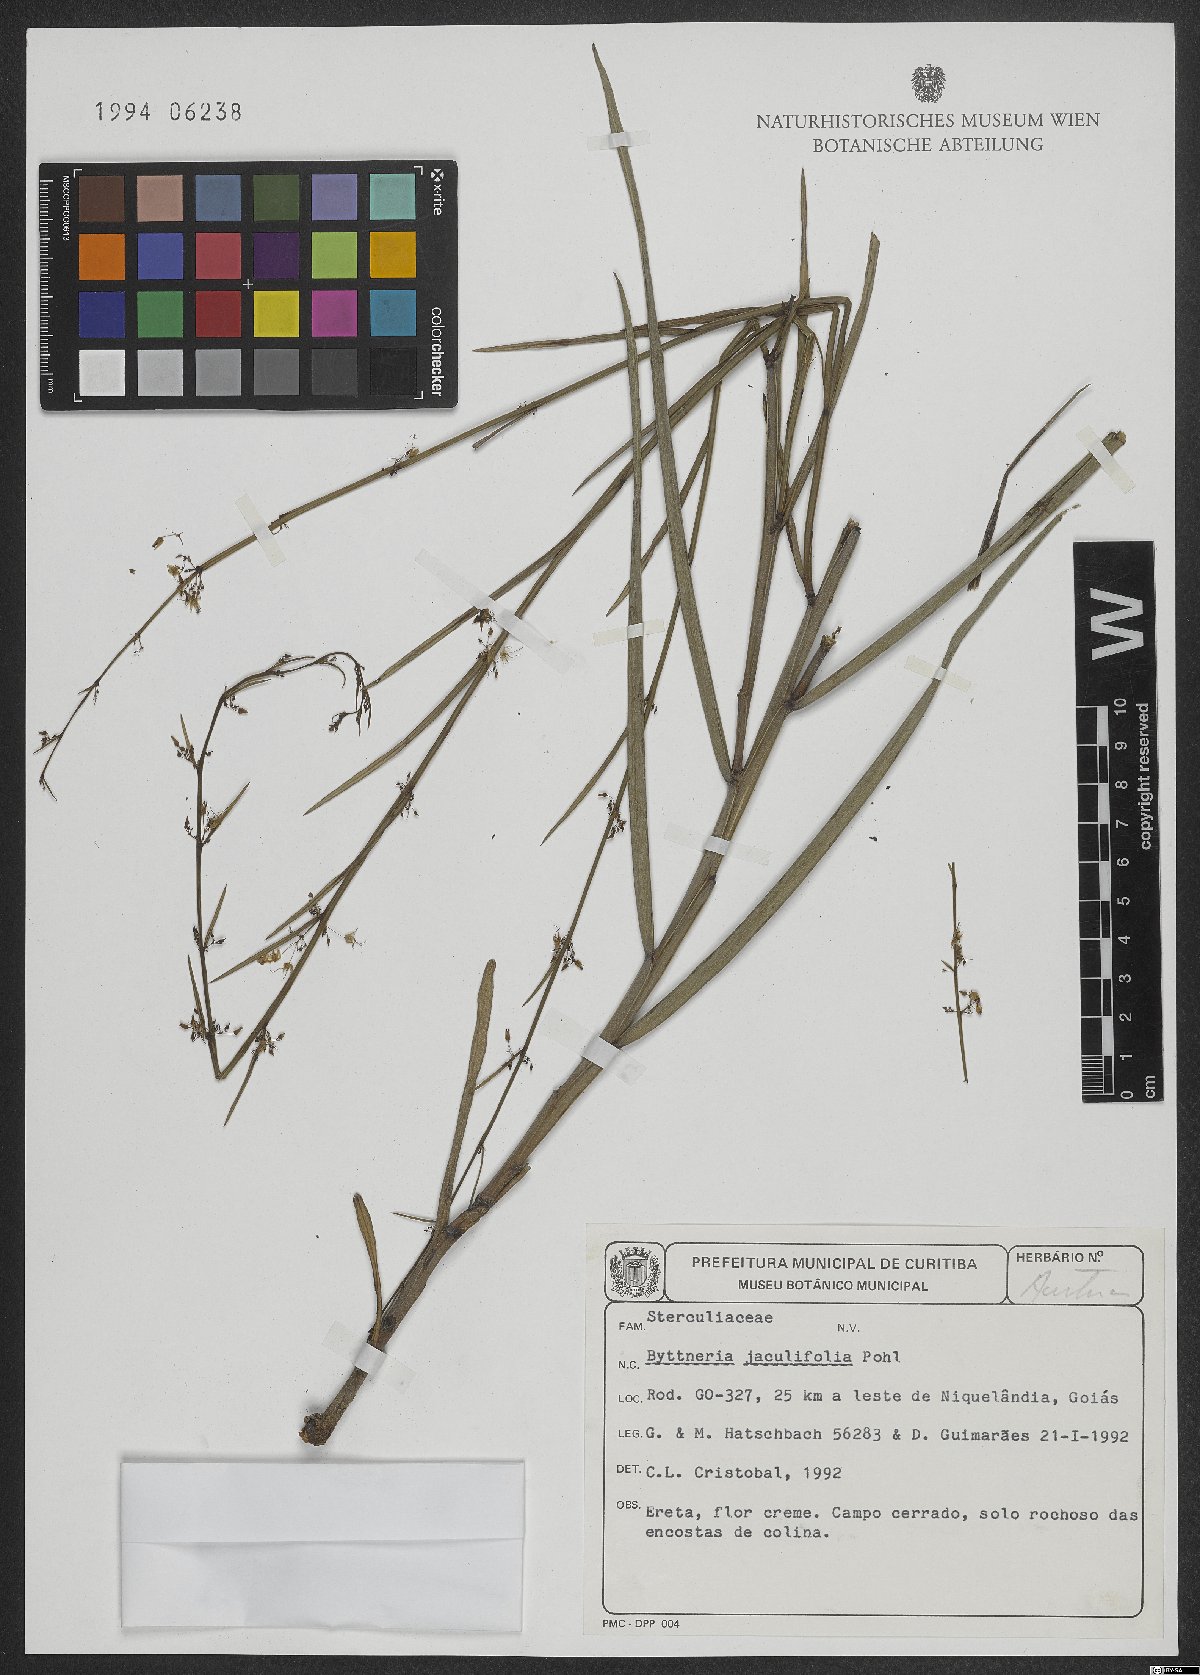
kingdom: Plantae
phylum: Tracheophyta
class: Magnoliopsida
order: Malvales
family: Malvaceae
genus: Byttneria
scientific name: Byttneria jaculifolia
